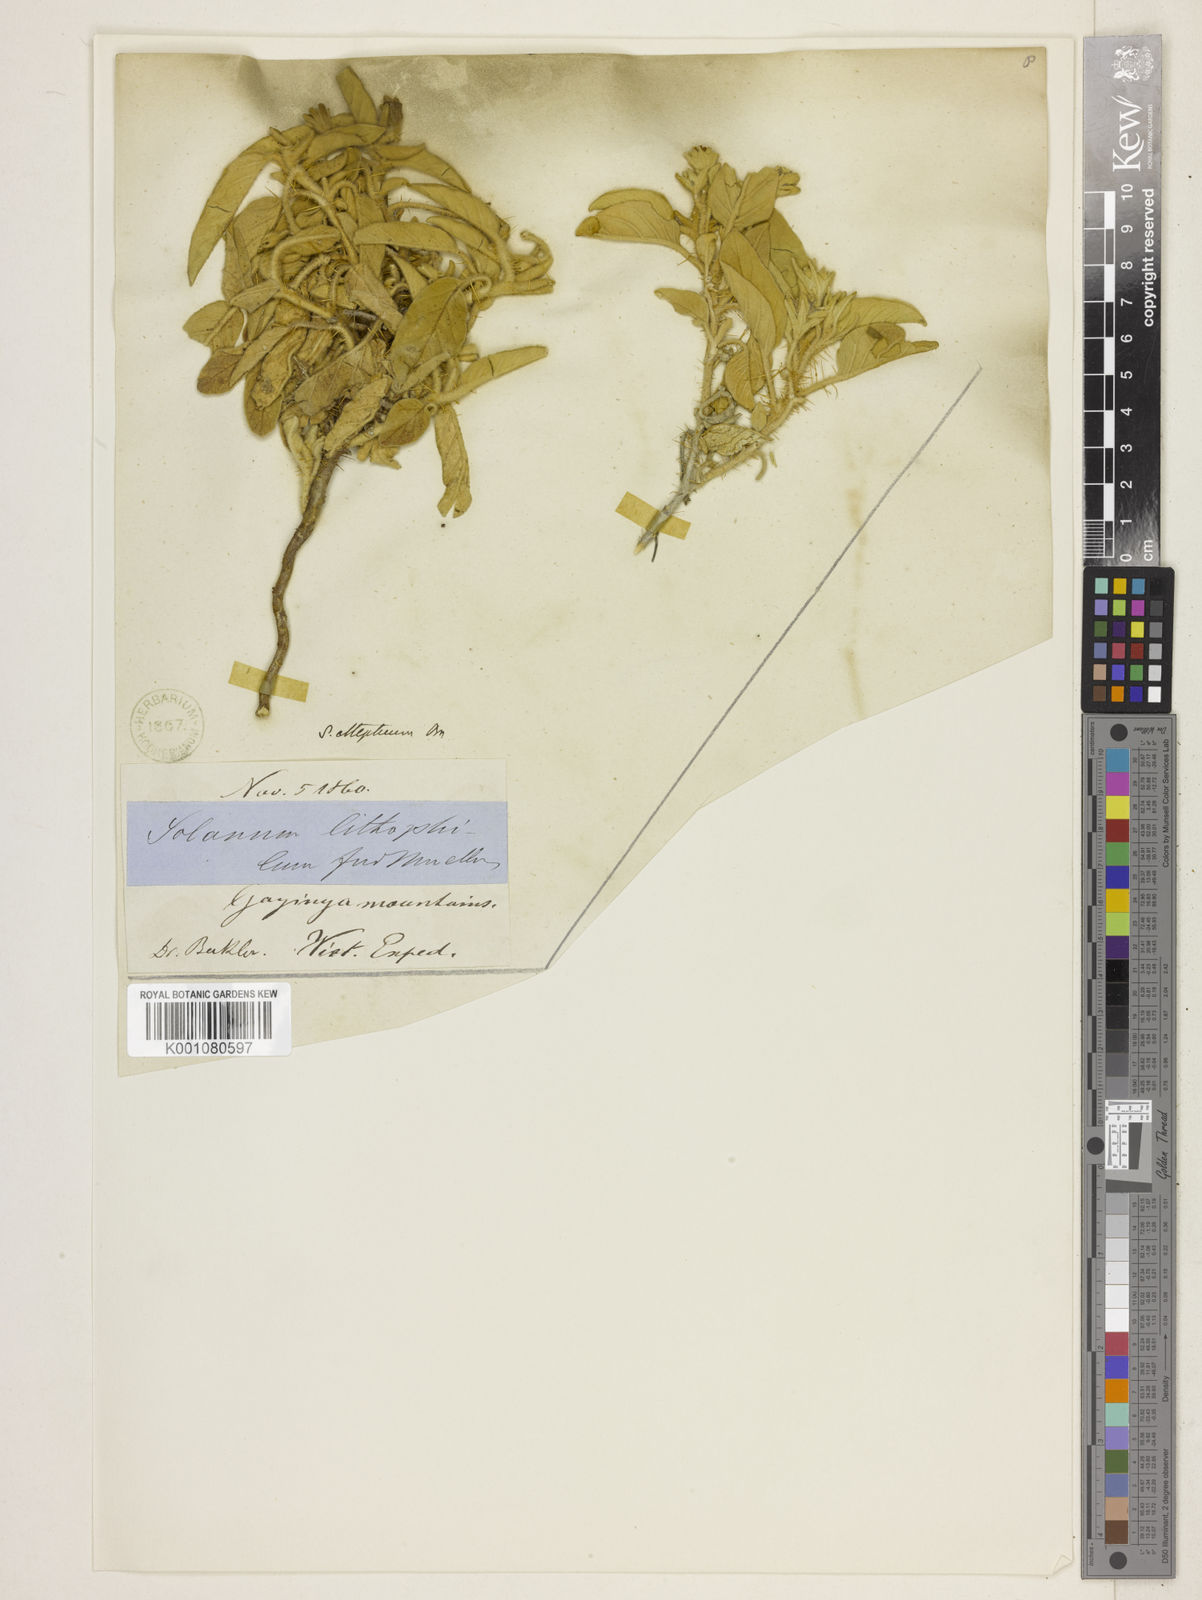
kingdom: Plantae
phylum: Tracheophyta
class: Magnoliopsida
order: Solanales
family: Solanaceae
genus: Solanum
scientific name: Solanum ellipticum
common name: Potato-bush
